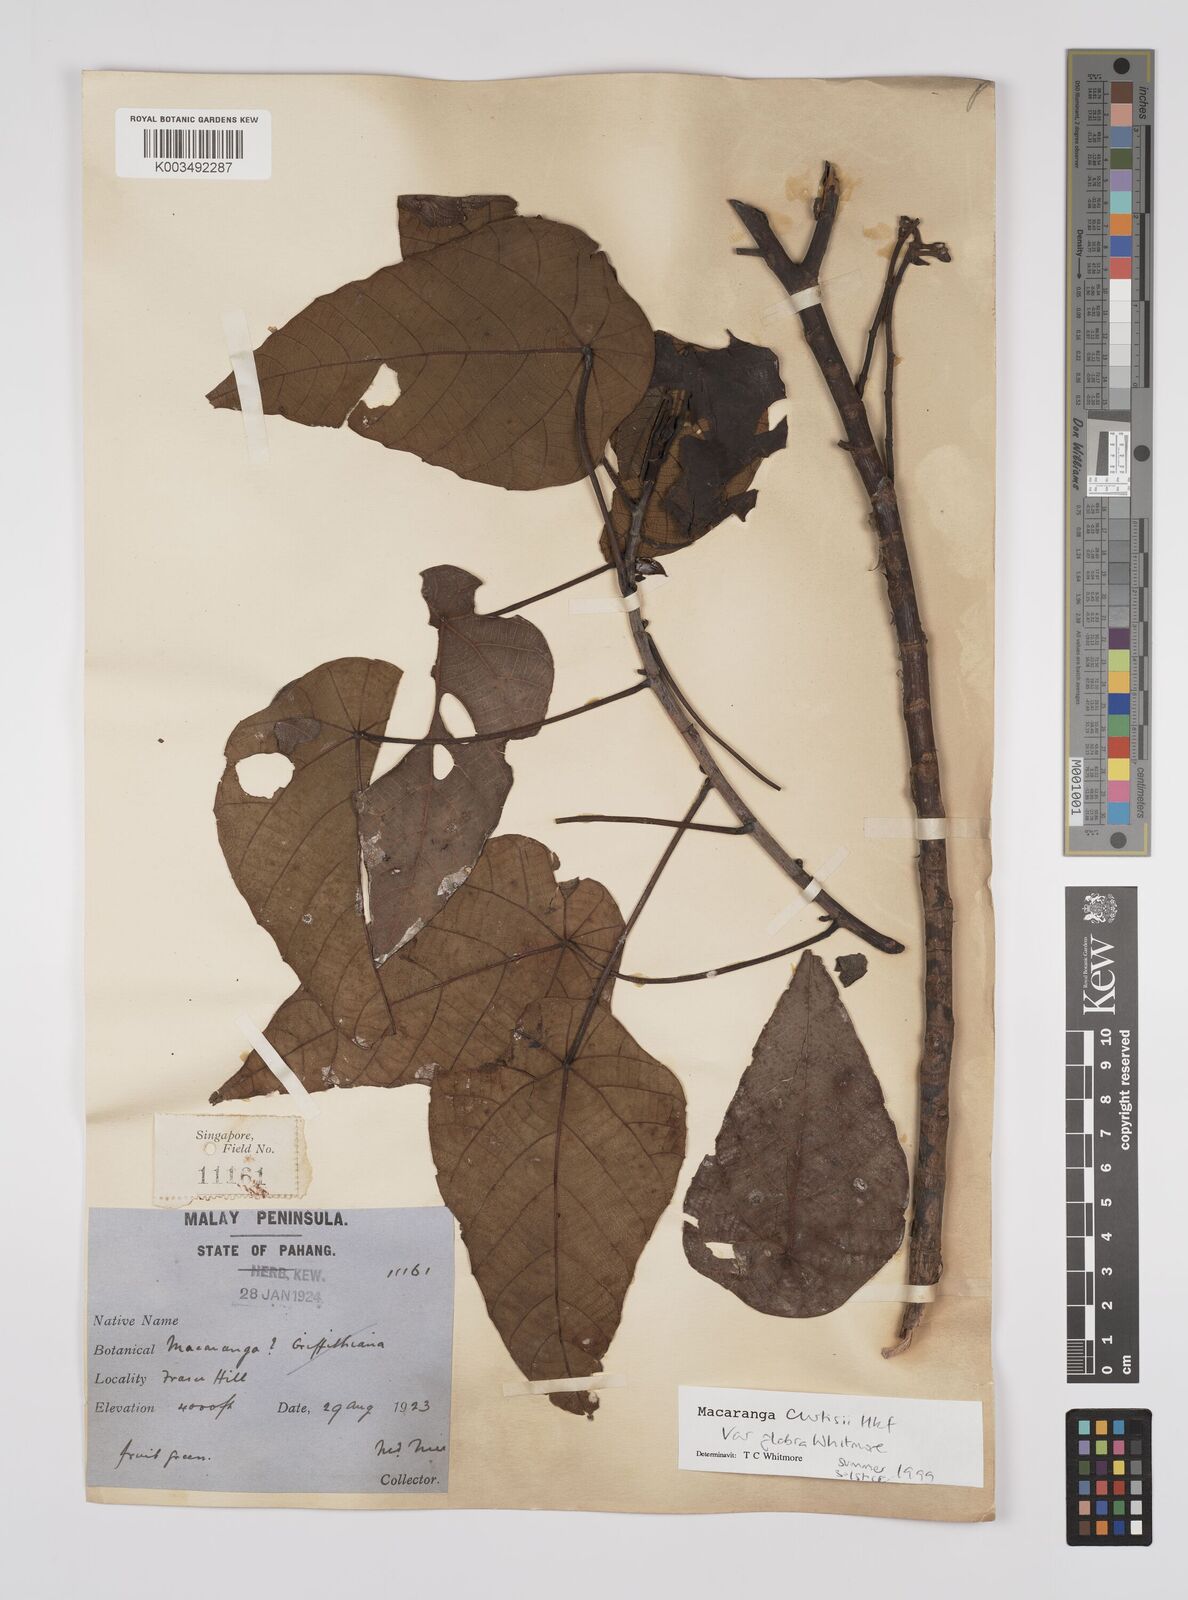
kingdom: Plantae
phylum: Tracheophyta
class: Magnoliopsida
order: Malpighiales
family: Euphorbiaceae
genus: Macaranga
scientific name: Macaranga pachyphylla
